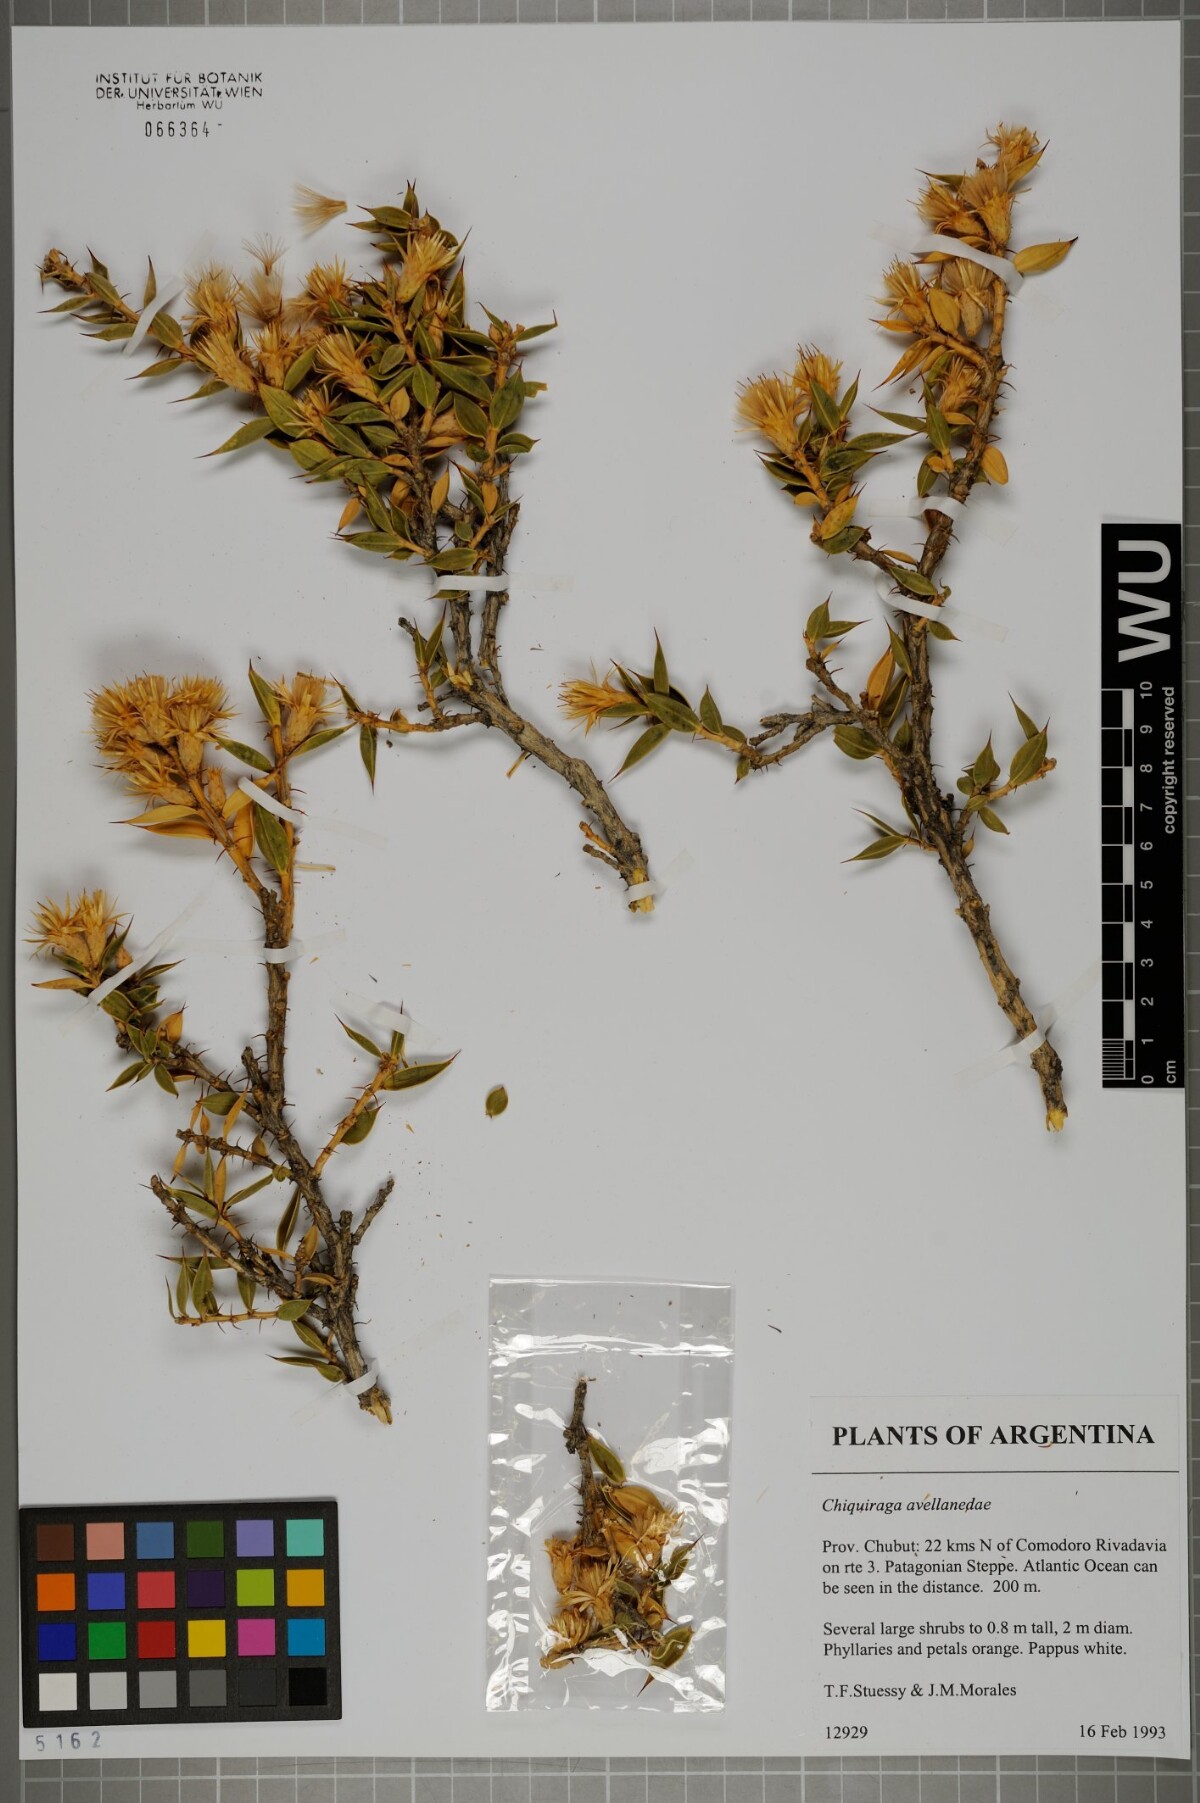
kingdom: Plantae
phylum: Tracheophyta
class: Magnoliopsida
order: Asterales
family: Asteraceae
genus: Chuquiraga
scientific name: Chuquiraga aurea
